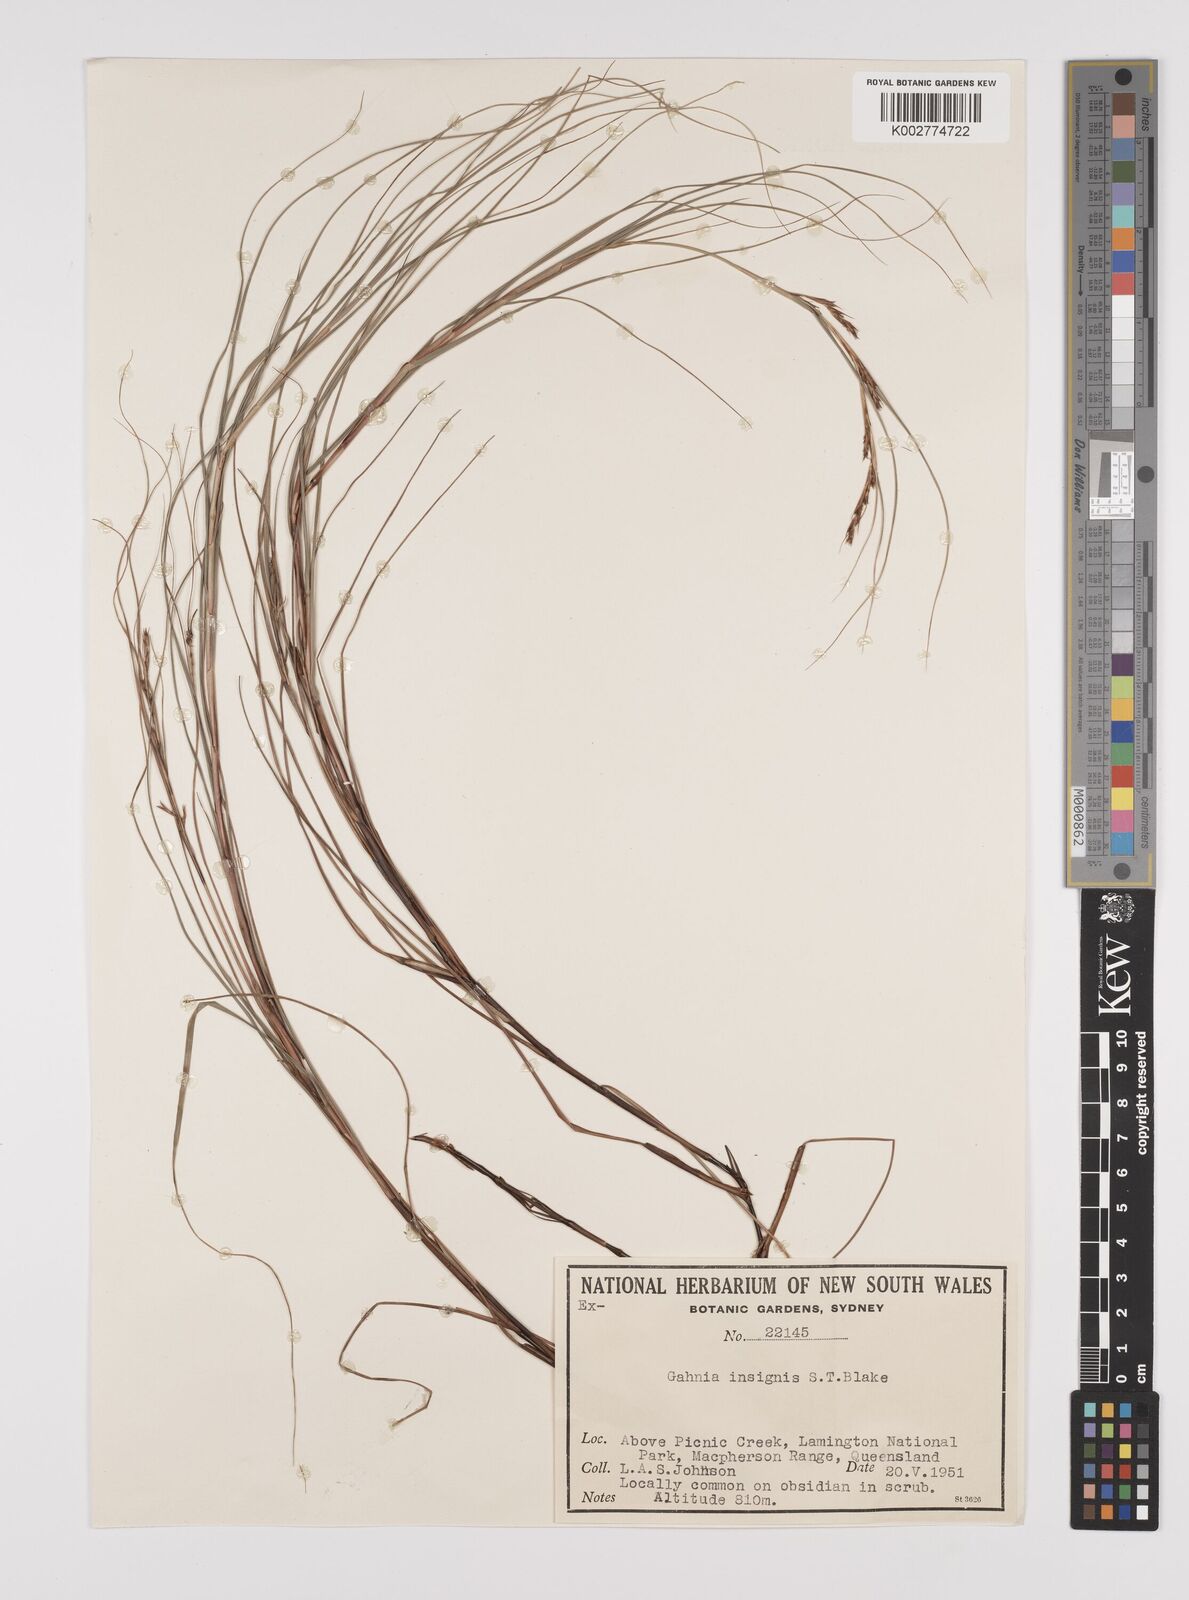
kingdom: Plantae
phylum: Tracheophyta
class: Liliopsida
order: Poales
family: Cyperaceae
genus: Gahnia
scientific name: Gahnia insignis
